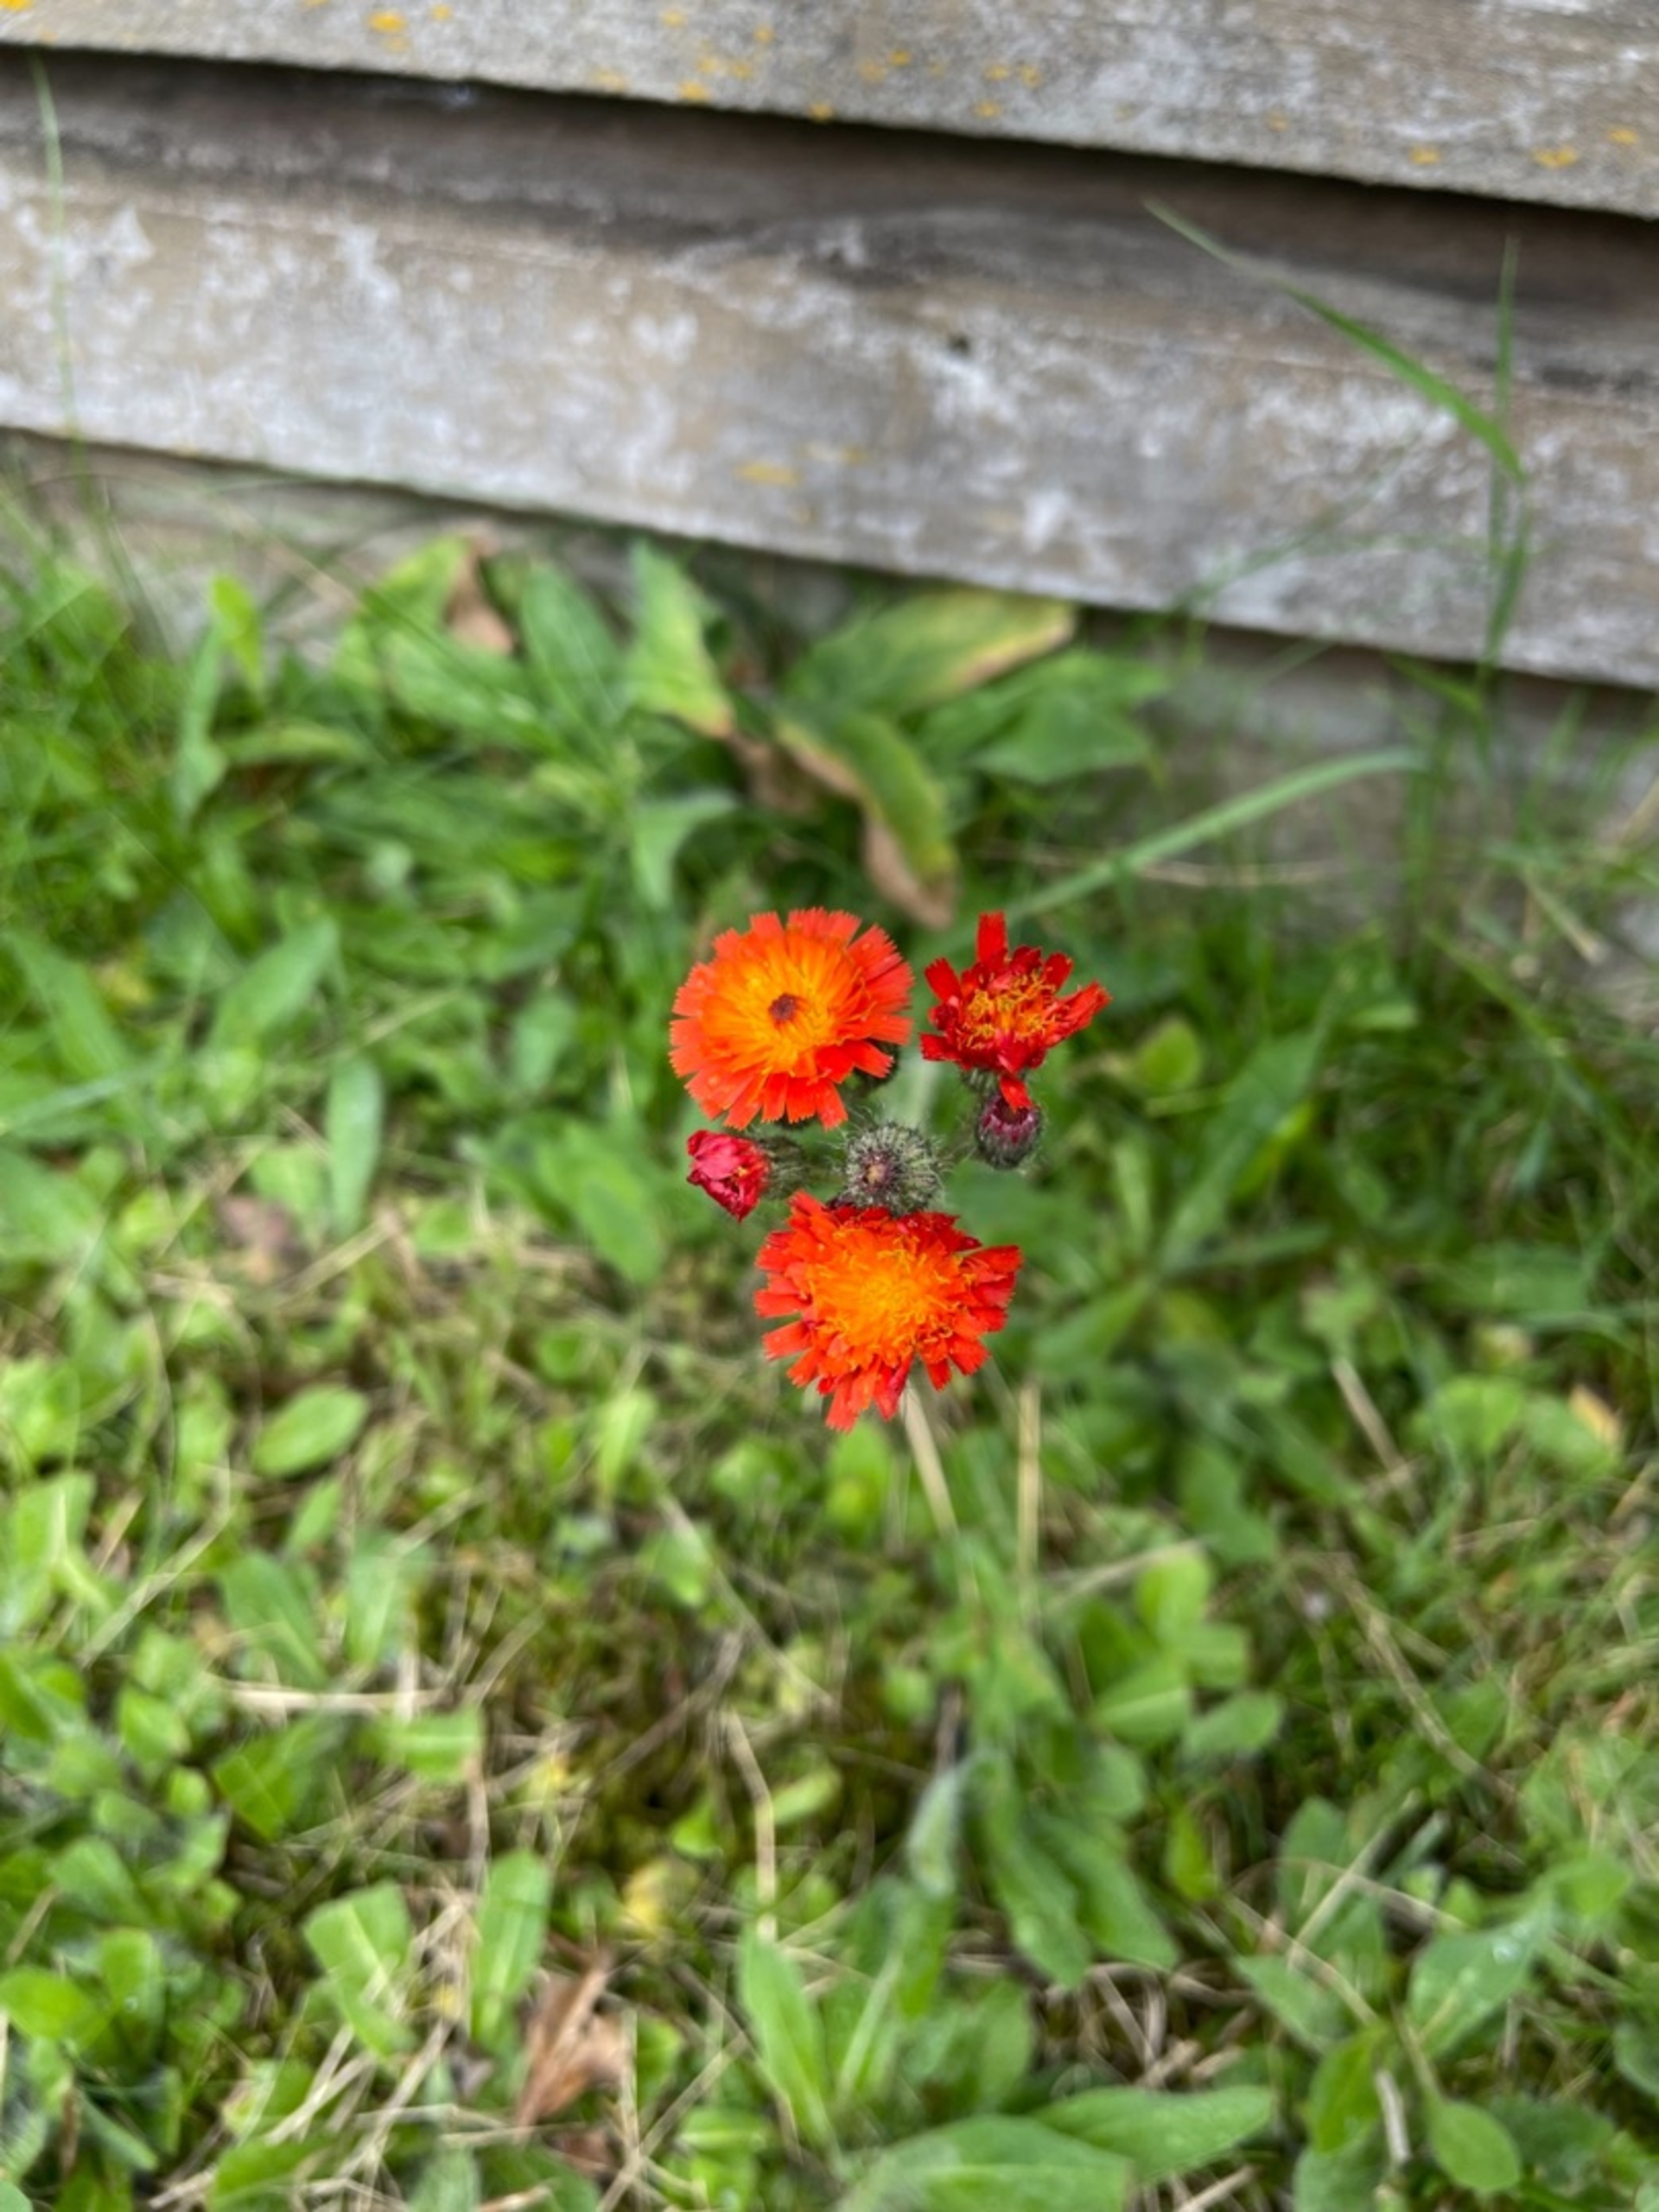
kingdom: Plantae
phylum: Tracheophyta
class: Magnoliopsida
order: Asterales
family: Asteraceae
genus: Pilosella
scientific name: Pilosella aurantiaca
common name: Pomerans-høgeurt
